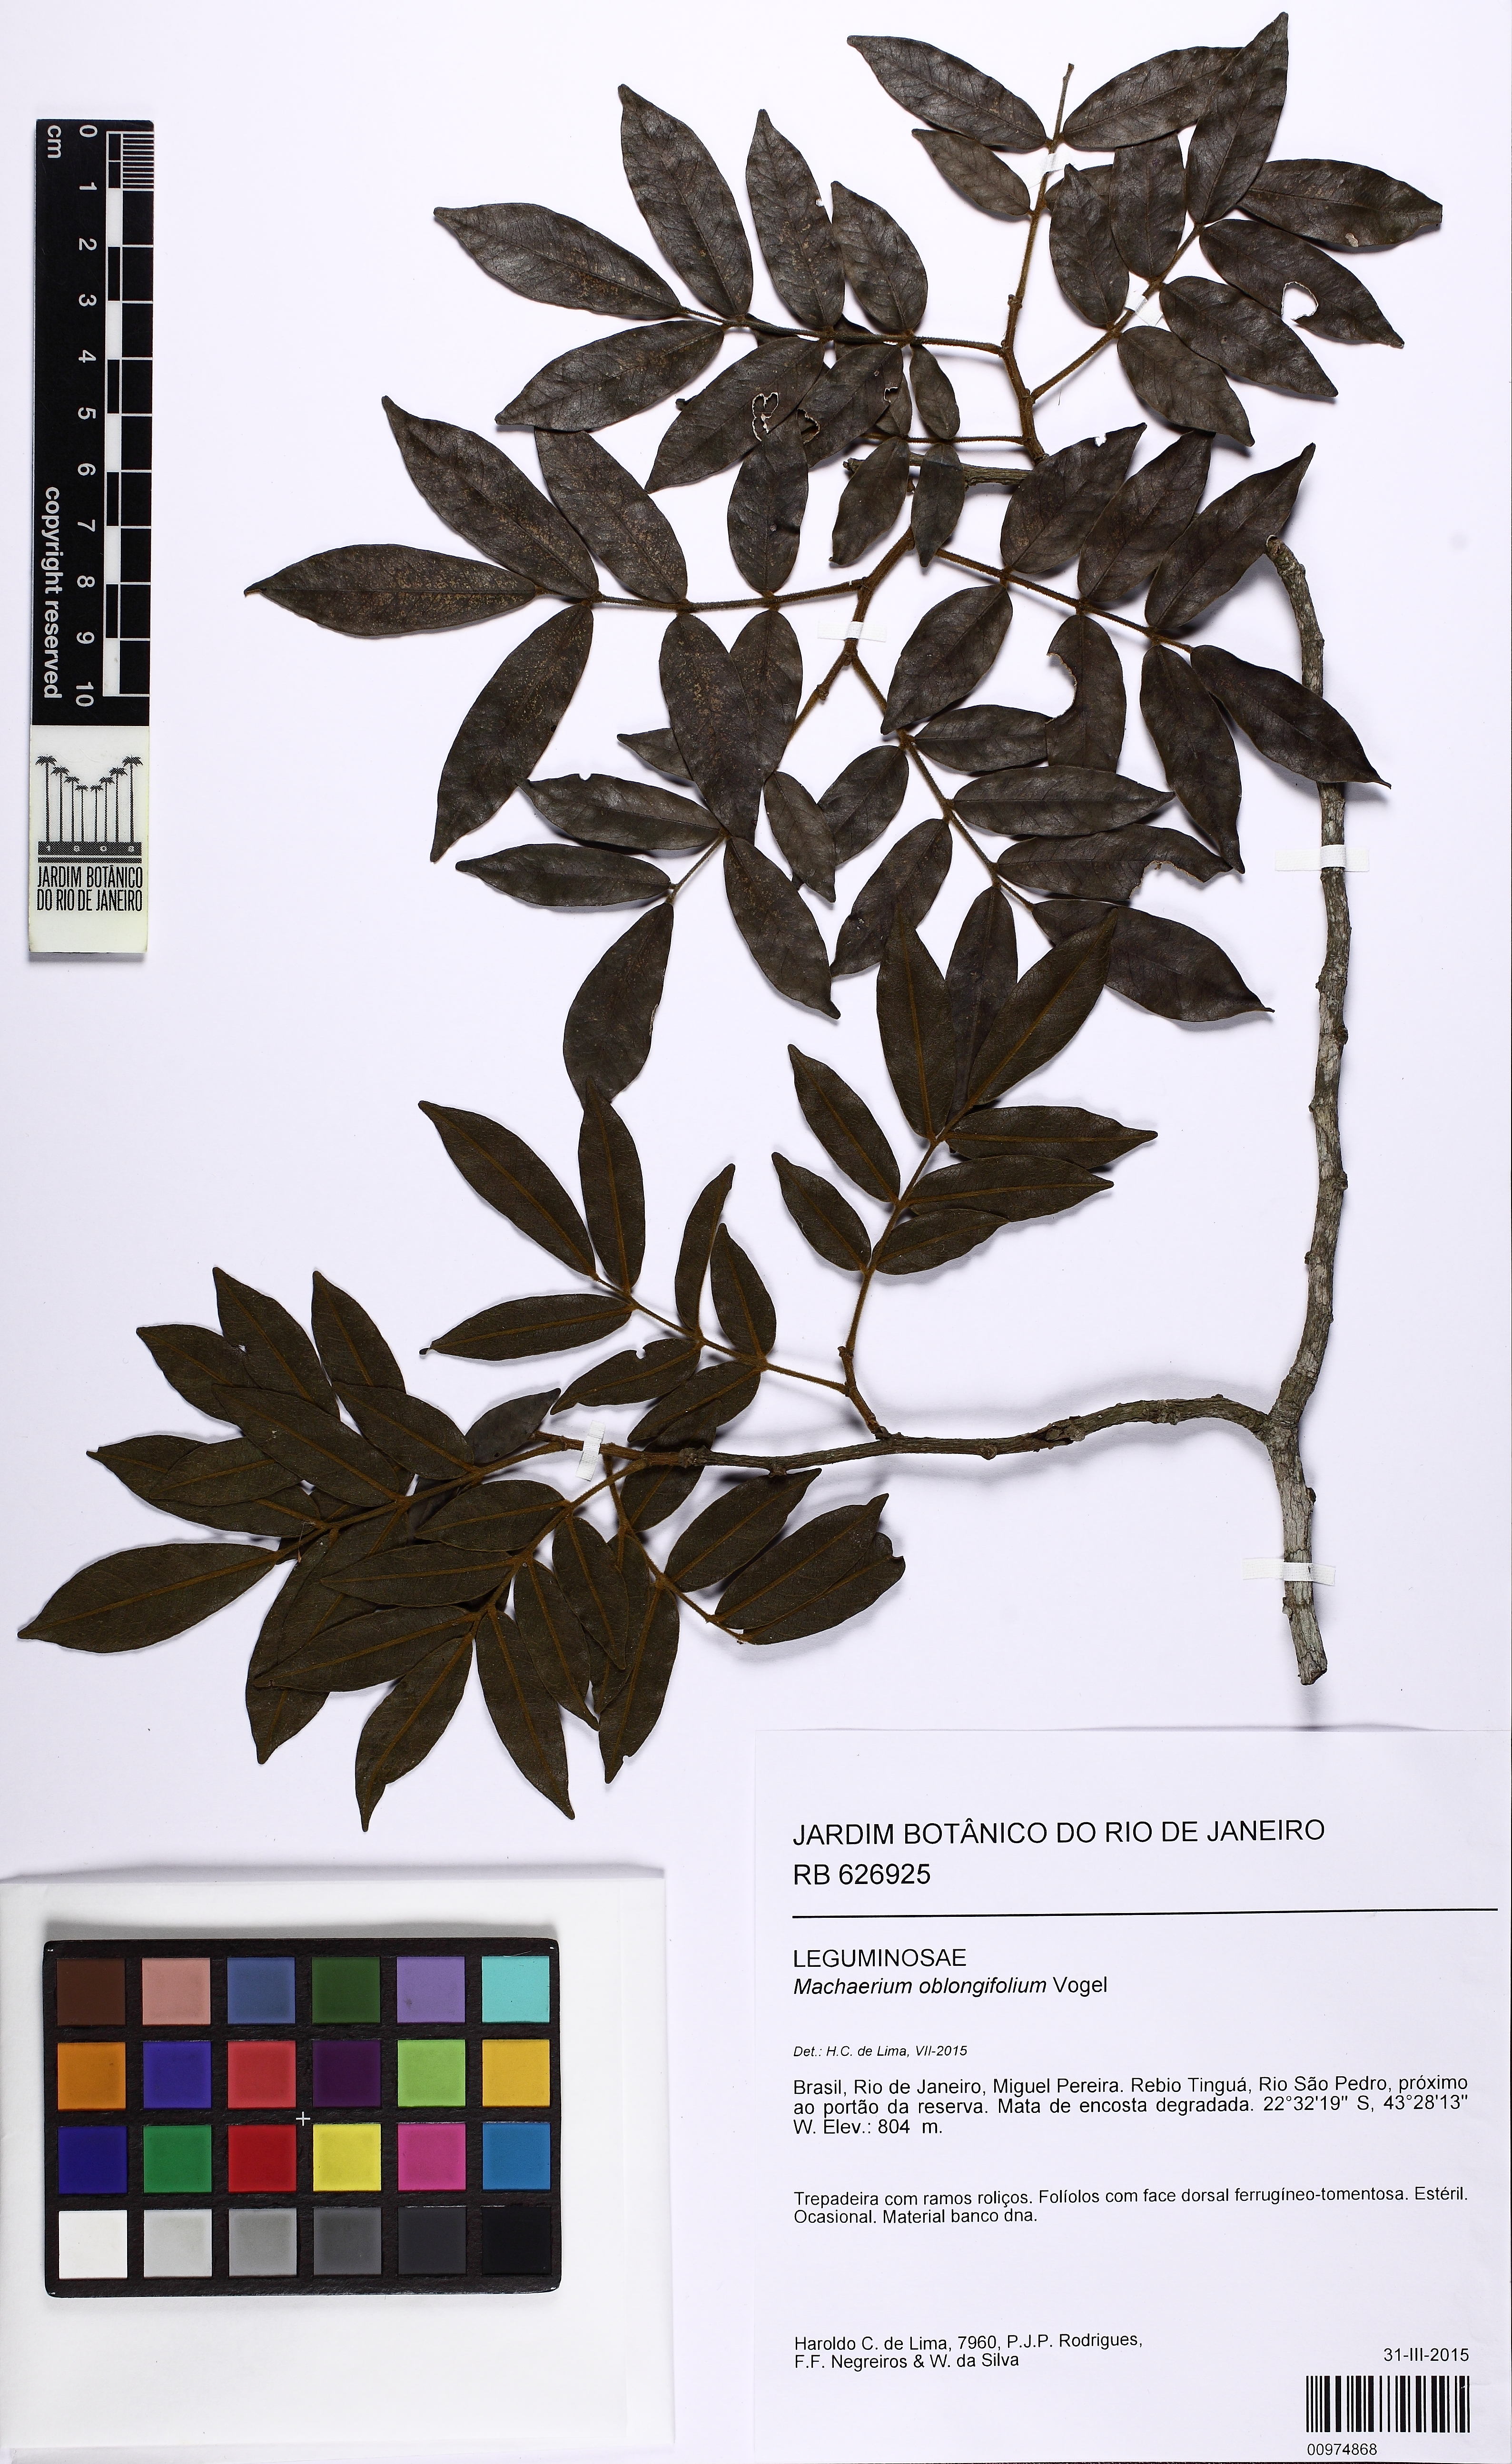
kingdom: Plantae
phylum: Tracheophyta
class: Magnoliopsida
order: Fabales
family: Fabaceae
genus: Machaerium
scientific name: Machaerium oblongifolium
